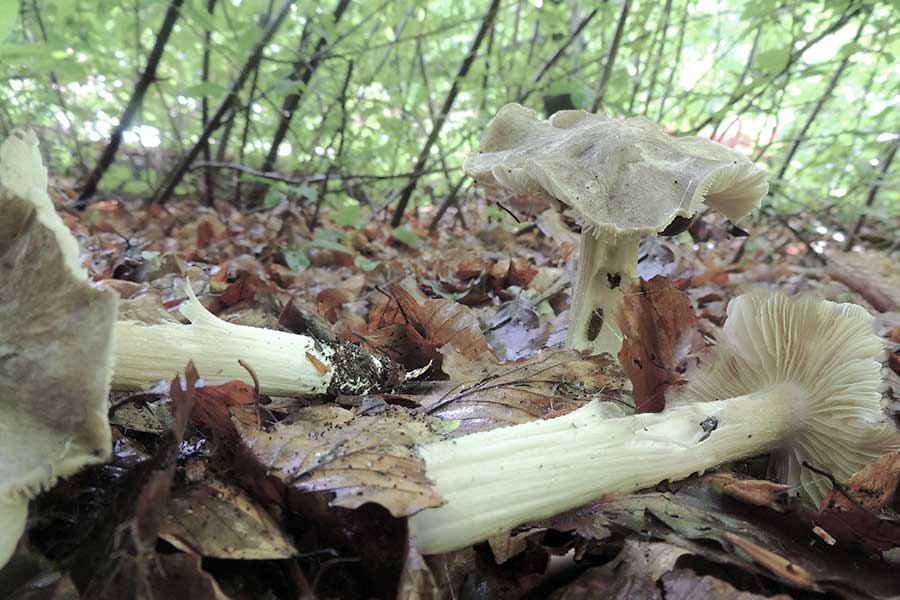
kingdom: Fungi
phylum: Basidiomycota
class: Agaricomycetes
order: Agaricales
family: Tricholomataceae
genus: Megacollybia
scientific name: Megacollybia platyphylla
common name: bredbladet væbnerhat
